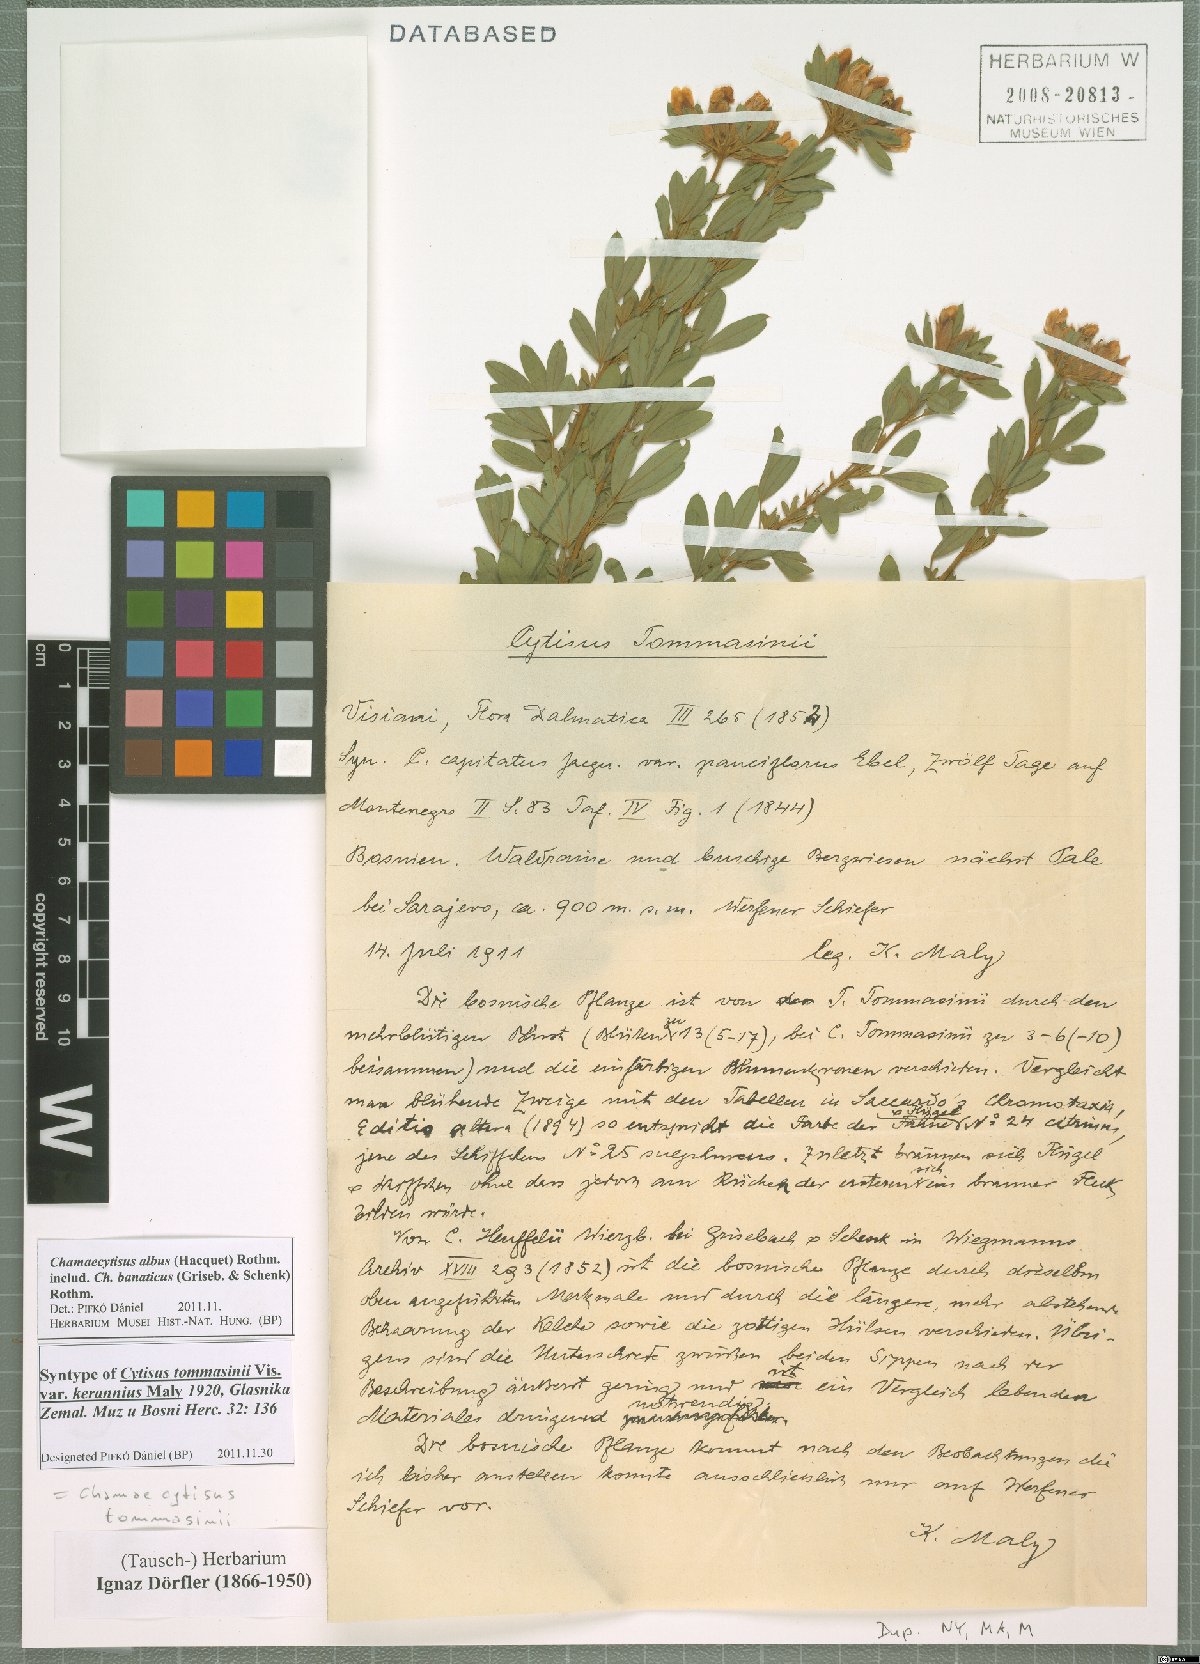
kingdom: Plantae
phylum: Tracheophyta
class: Magnoliopsida
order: Fabales
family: Fabaceae
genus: Chamaecytisus
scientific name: Chamaecytisus albus
